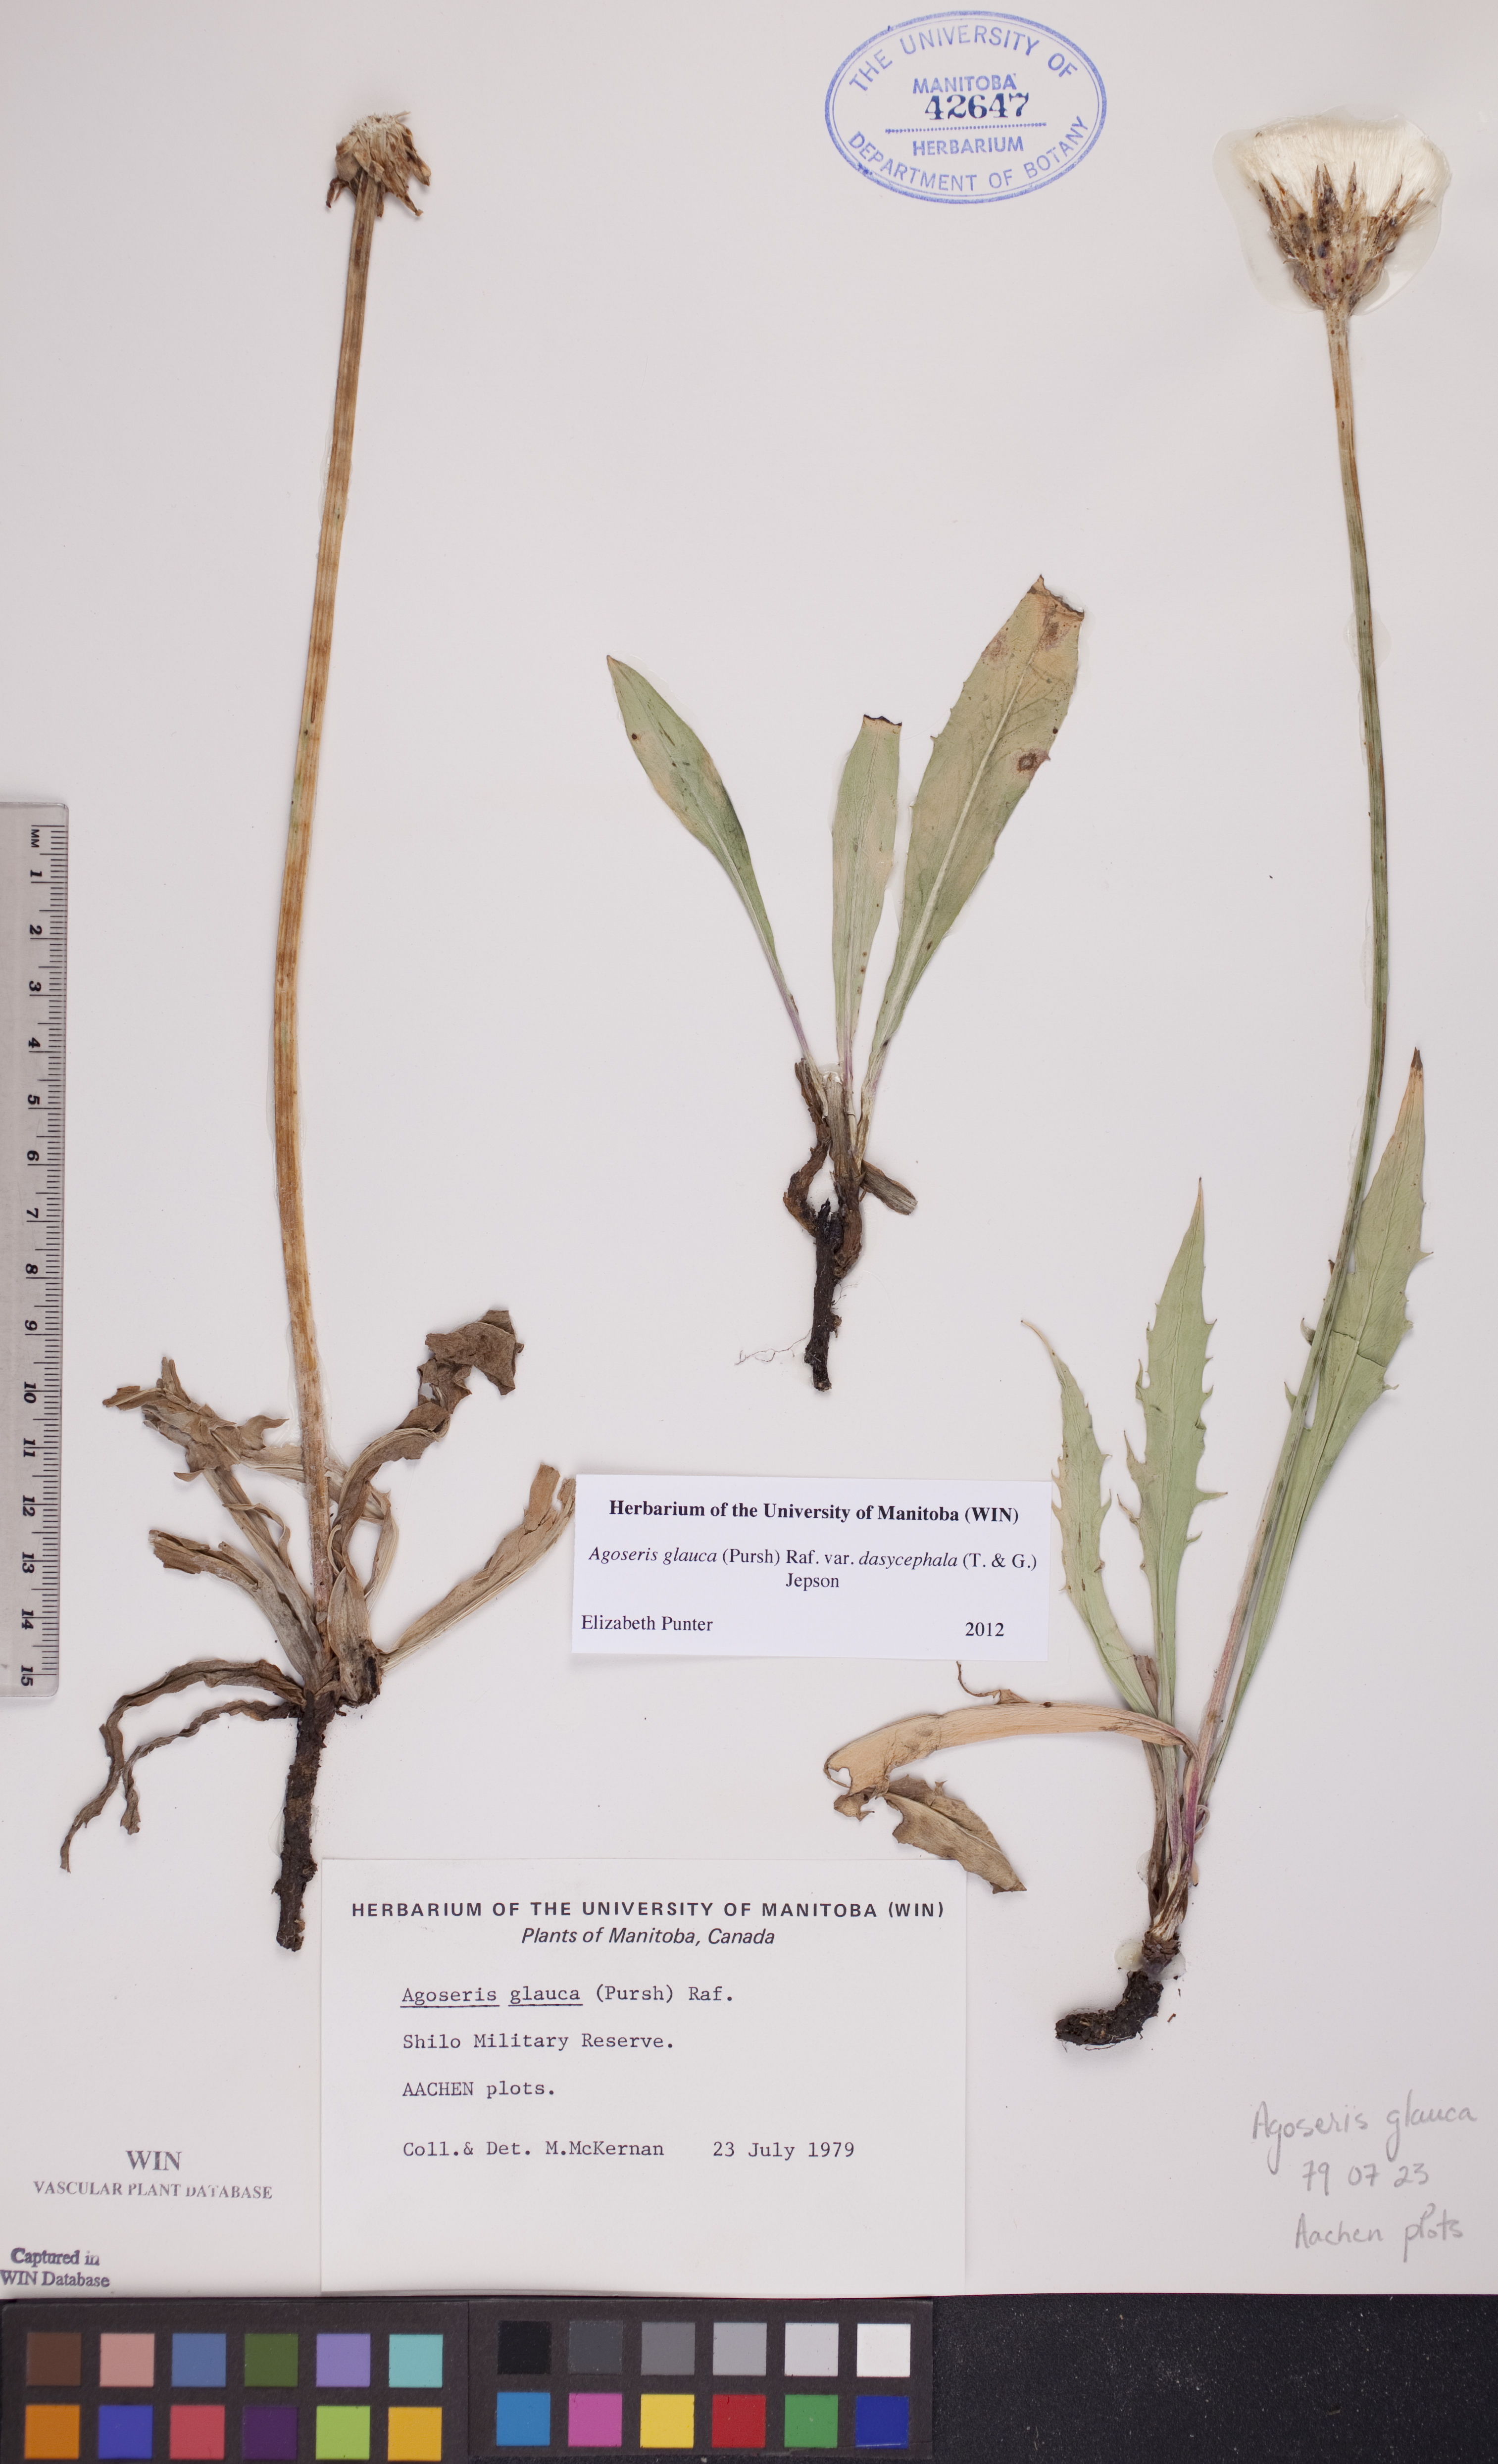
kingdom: Plantae
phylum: Tracheophyta
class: Magnoliopsida
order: Asterales
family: Asteraceae
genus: Agoseris
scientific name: Agoseris glauca
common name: Prairie agoseris
